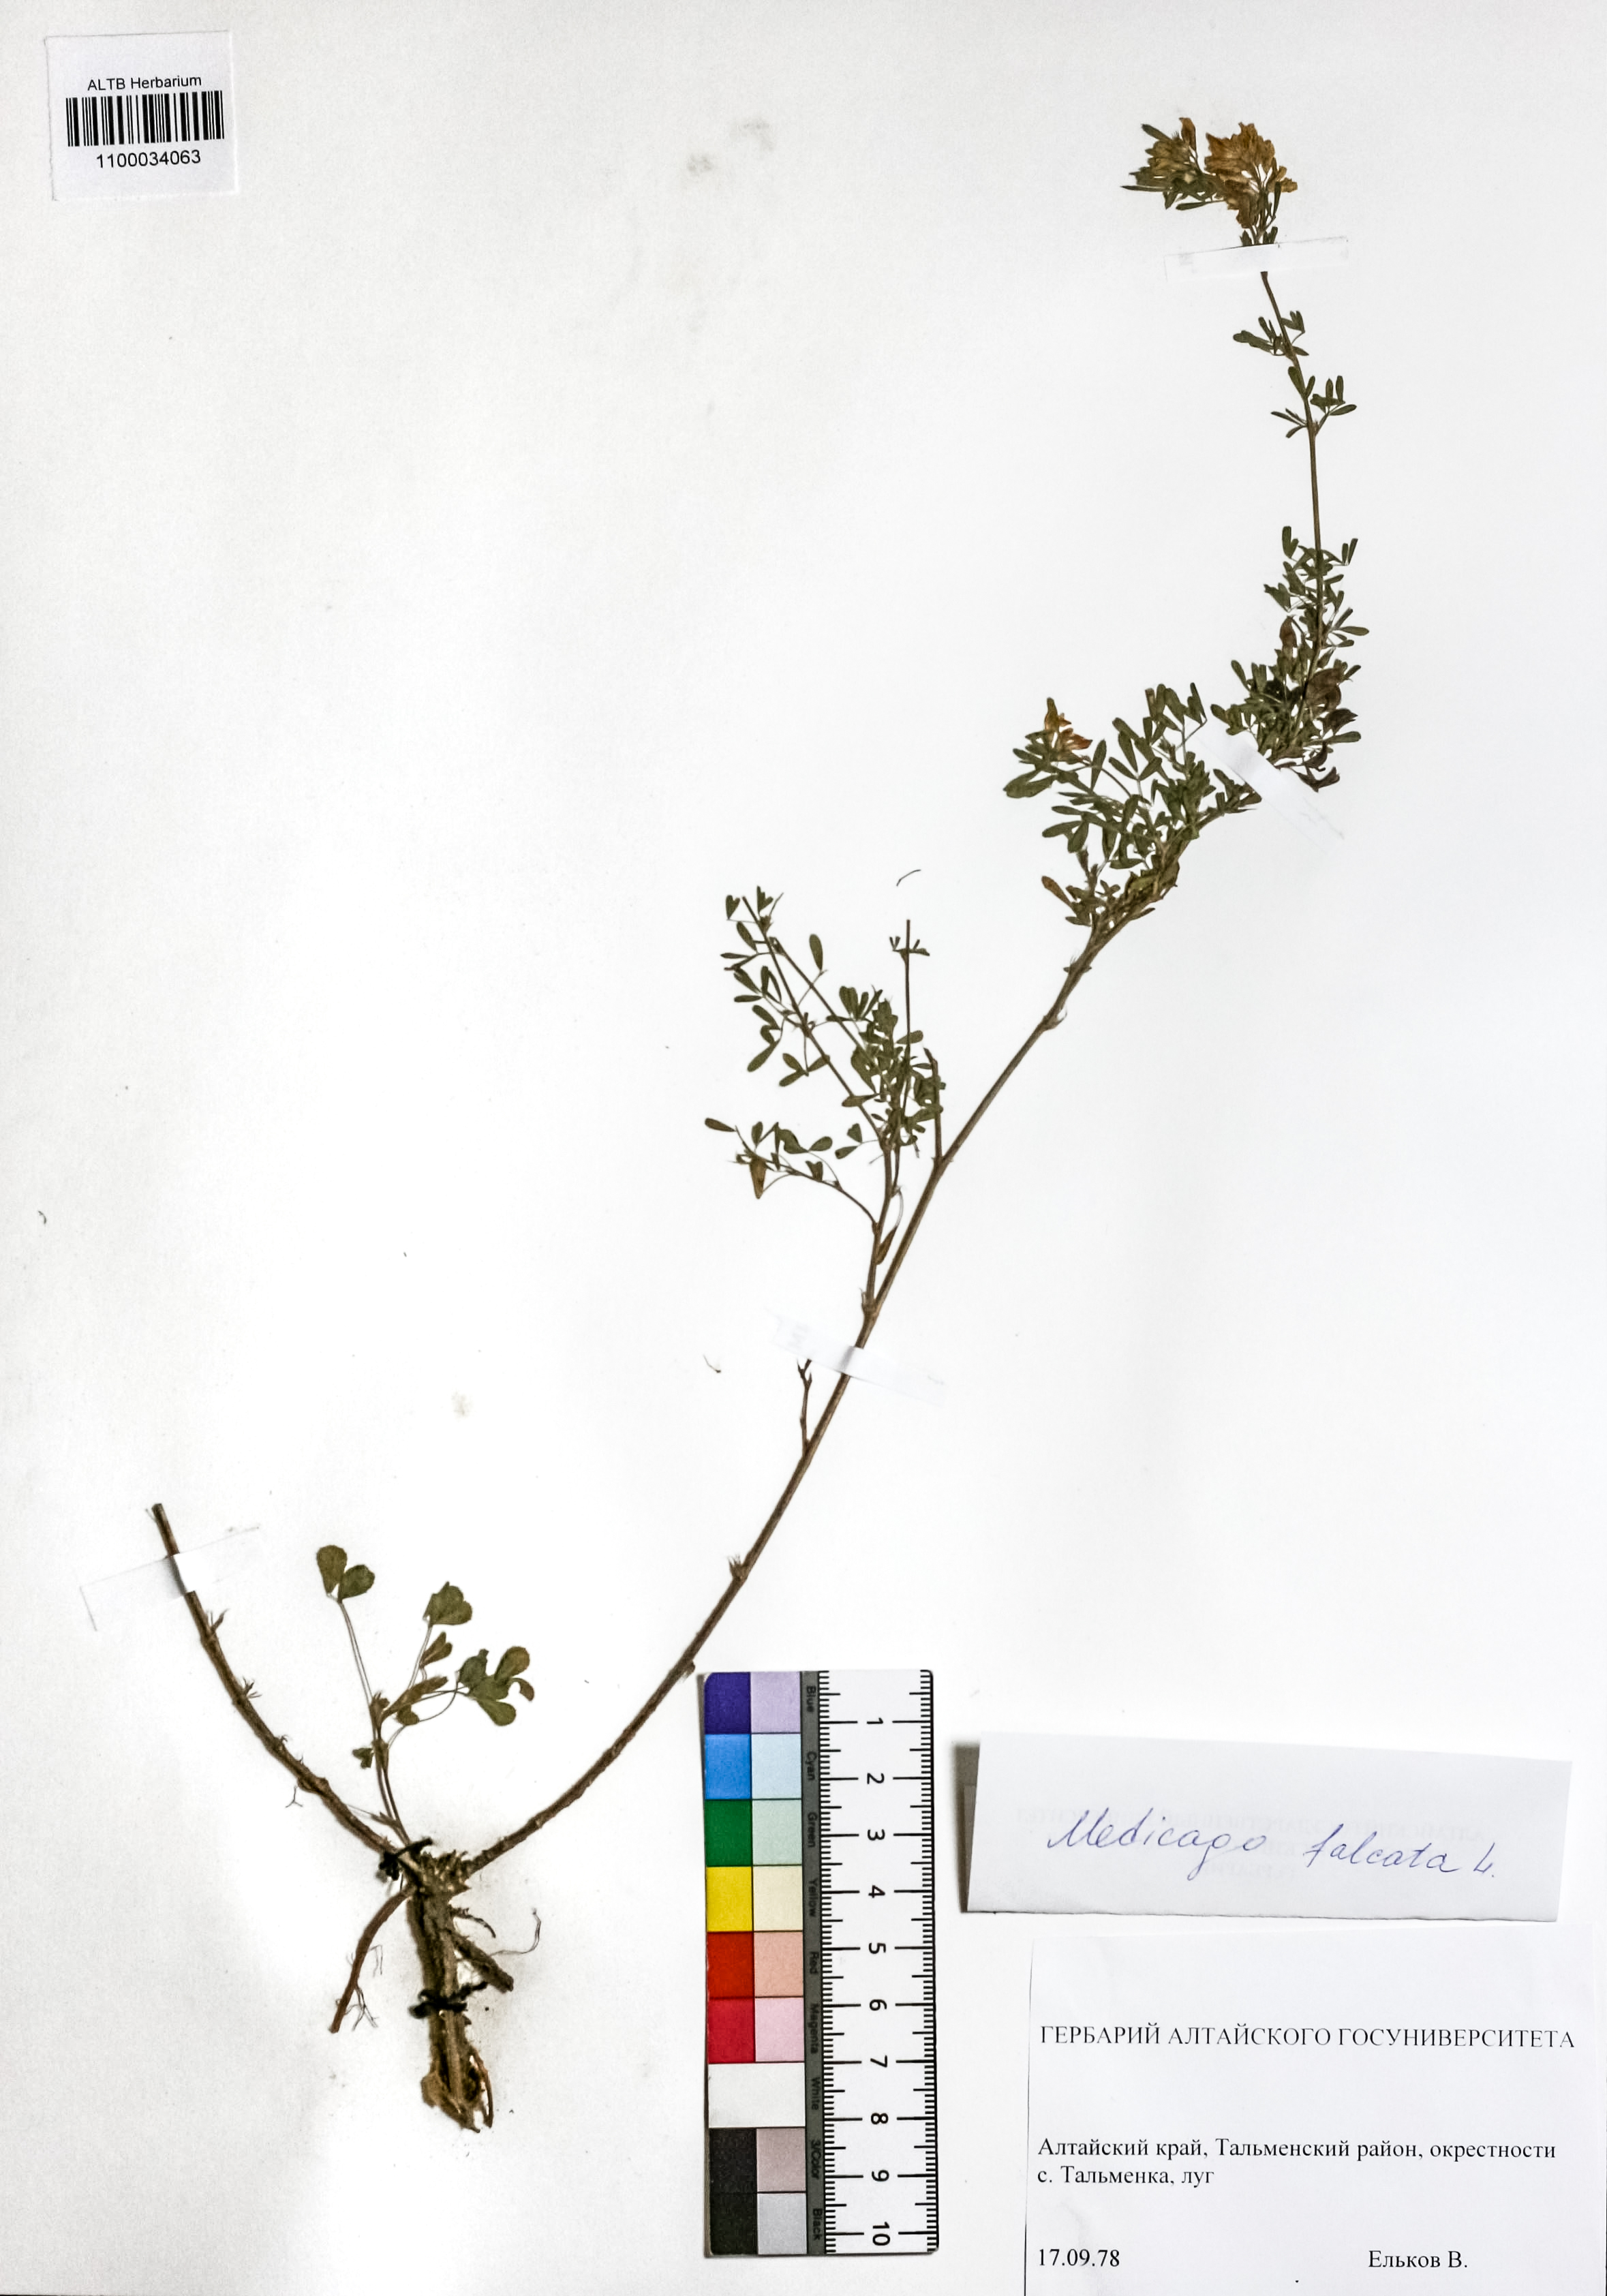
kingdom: Plantae
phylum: Tracheophyta
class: Magnoliopsida
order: Fabales
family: Fabaceae
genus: Medicago
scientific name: Medicago falcata
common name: Sickle medick
